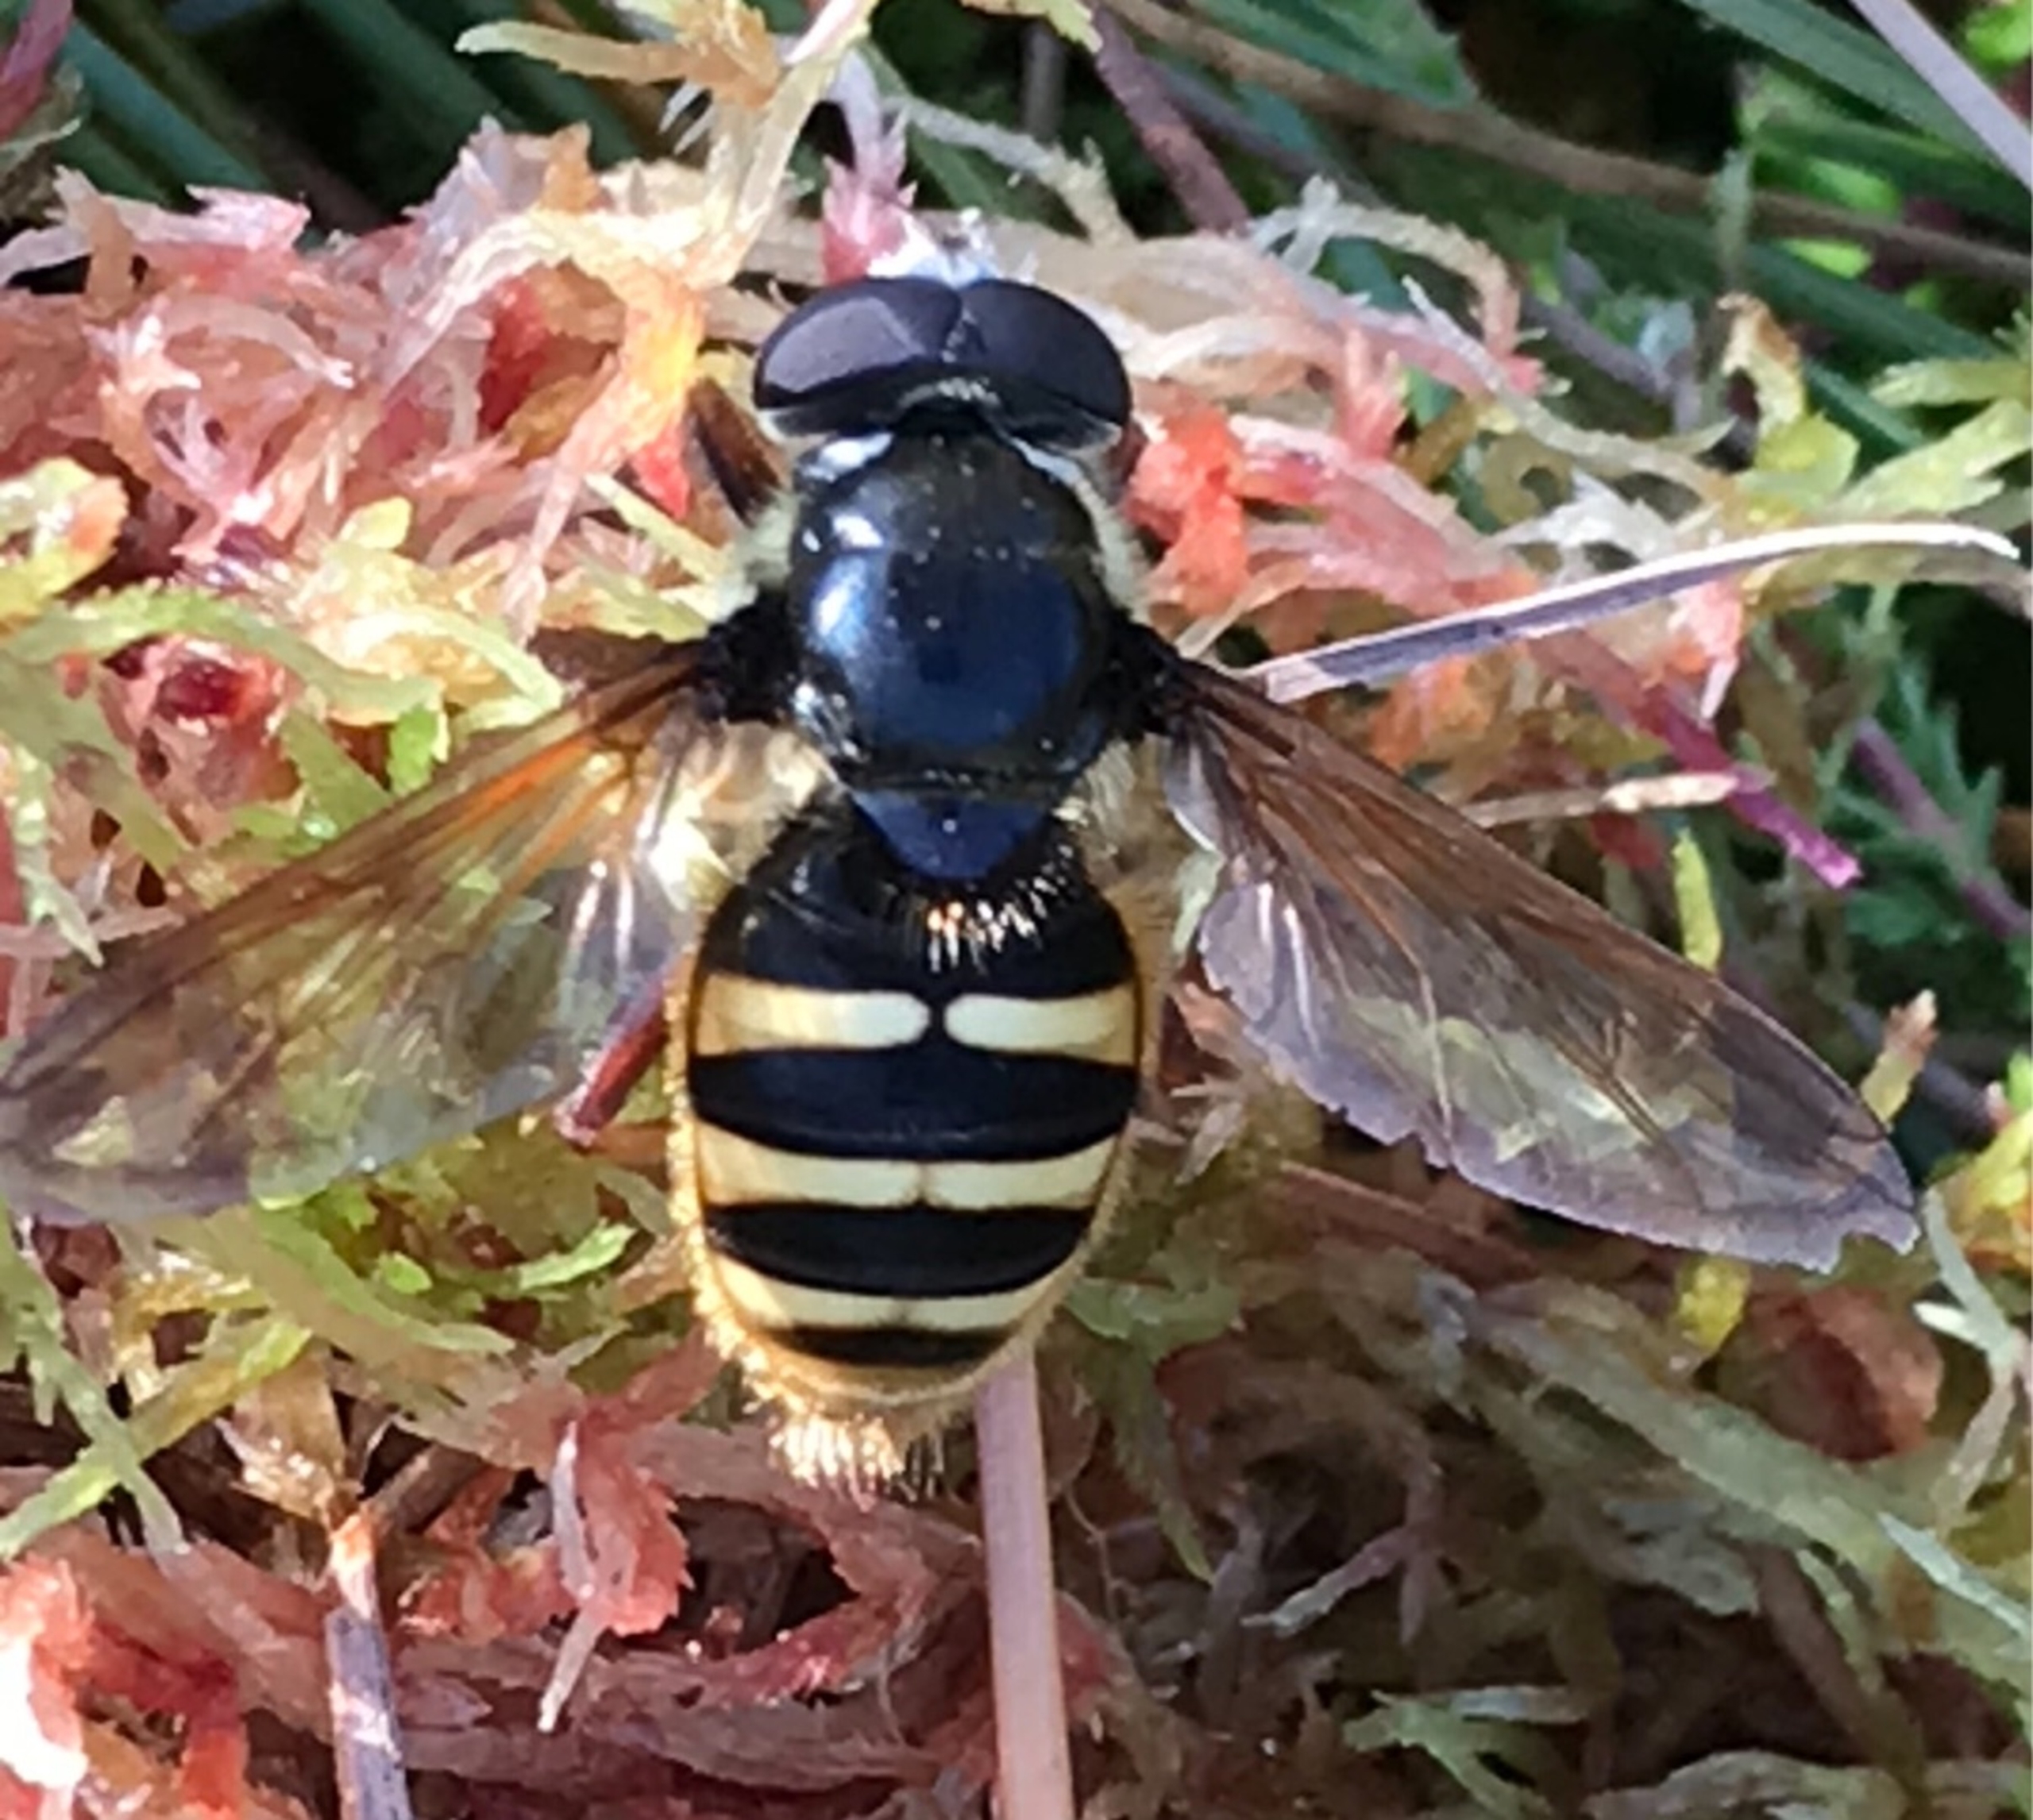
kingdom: Animalia
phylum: Arthropoda
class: Insecta
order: Diptera
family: Syrphidae
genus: Sericomyia
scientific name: Sericomyia silentis
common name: Tørve-silkesvirreflue
